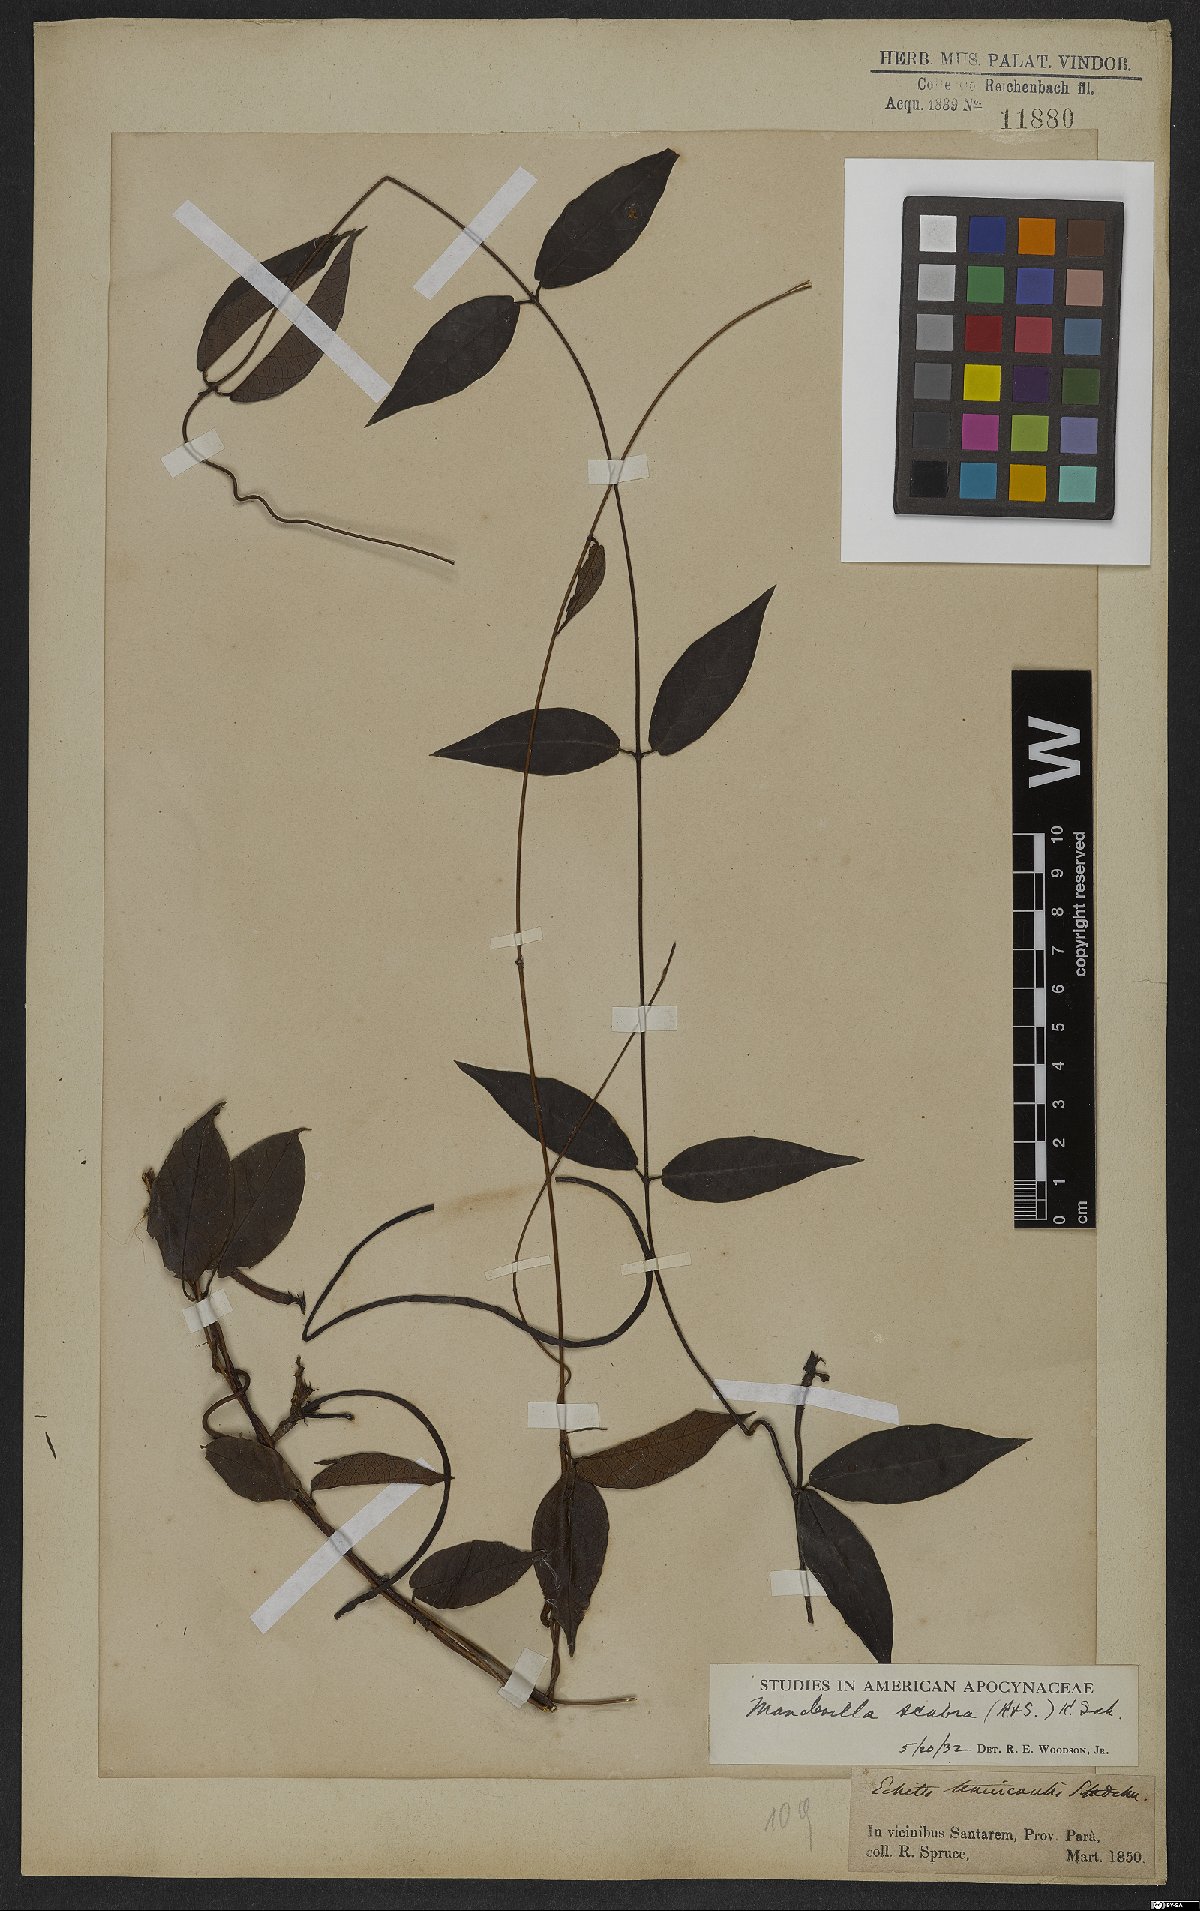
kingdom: Plantae
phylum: Tracheophyta
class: Magnoliopsida
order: Gentianales
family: Apocynaceae
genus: Mandevilla
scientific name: Mandevilla scabra
